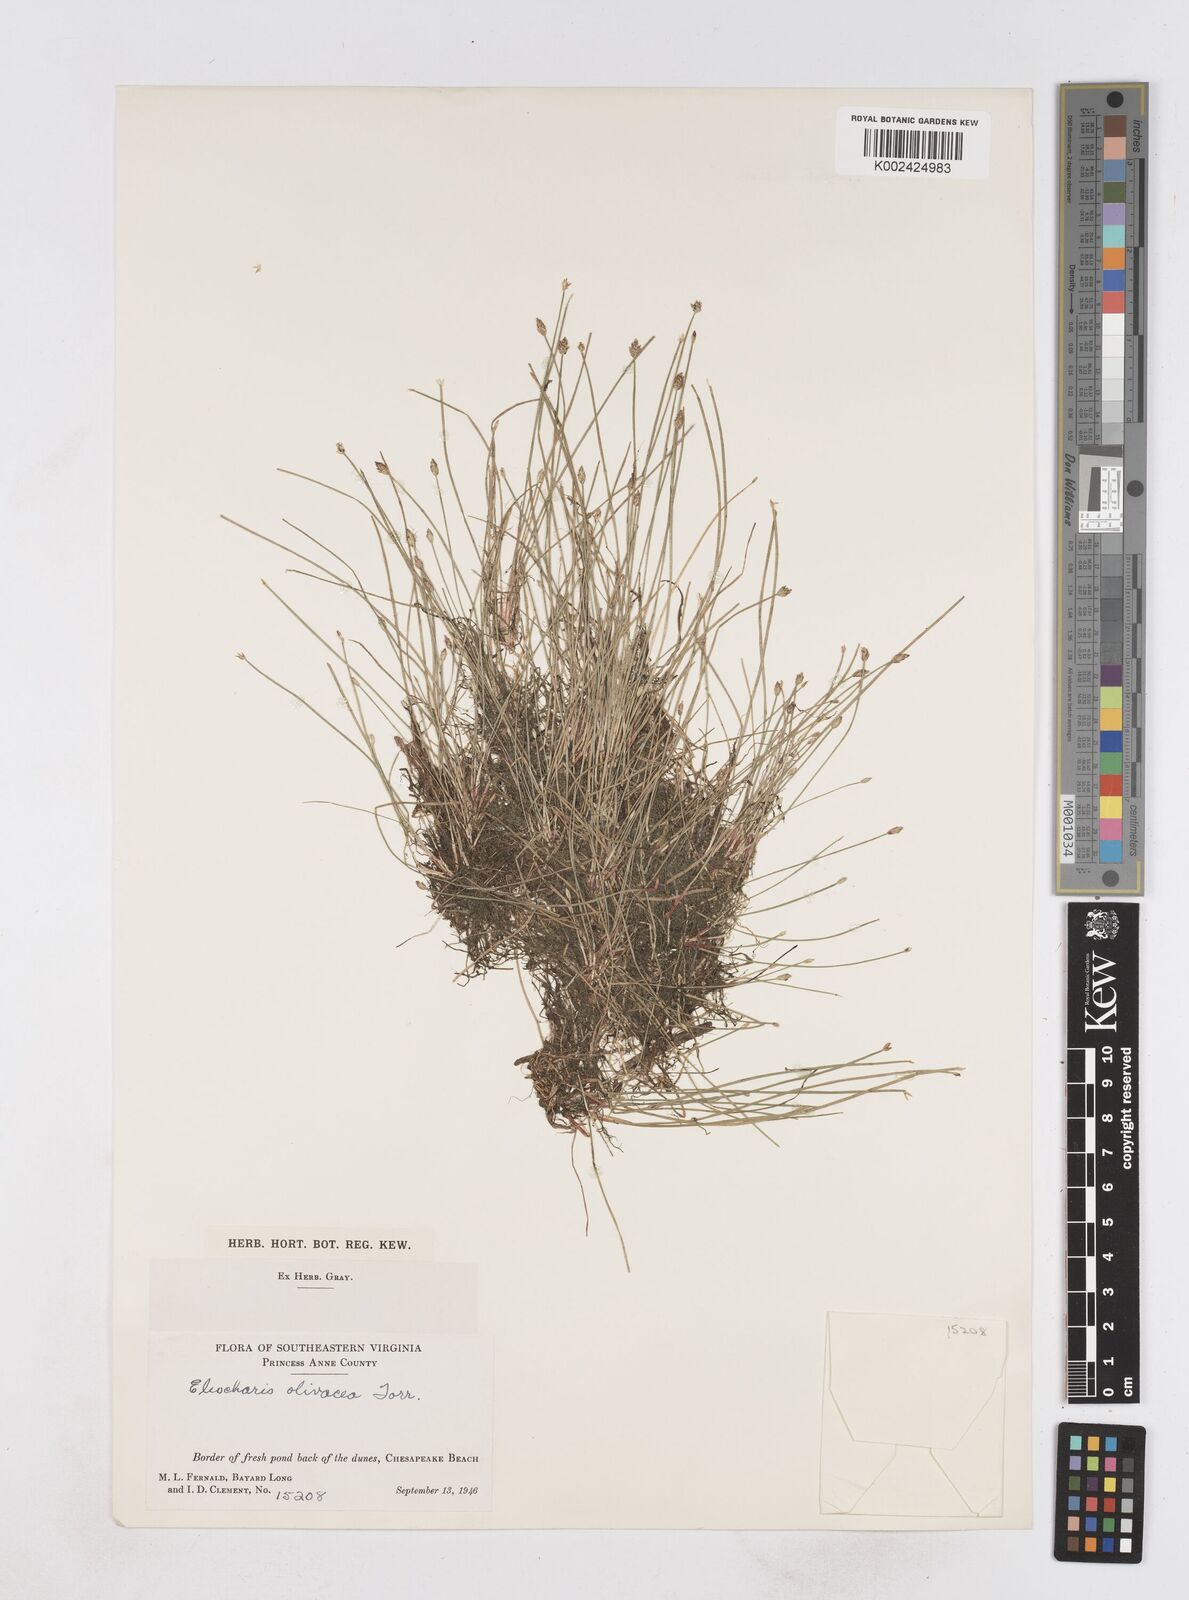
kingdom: Plantae
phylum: Tracheophyta
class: Liliopsida
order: Poales
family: Cyperaceae
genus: Eleocharis
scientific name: Eleocharis flavescens
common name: Yellow spikerush
